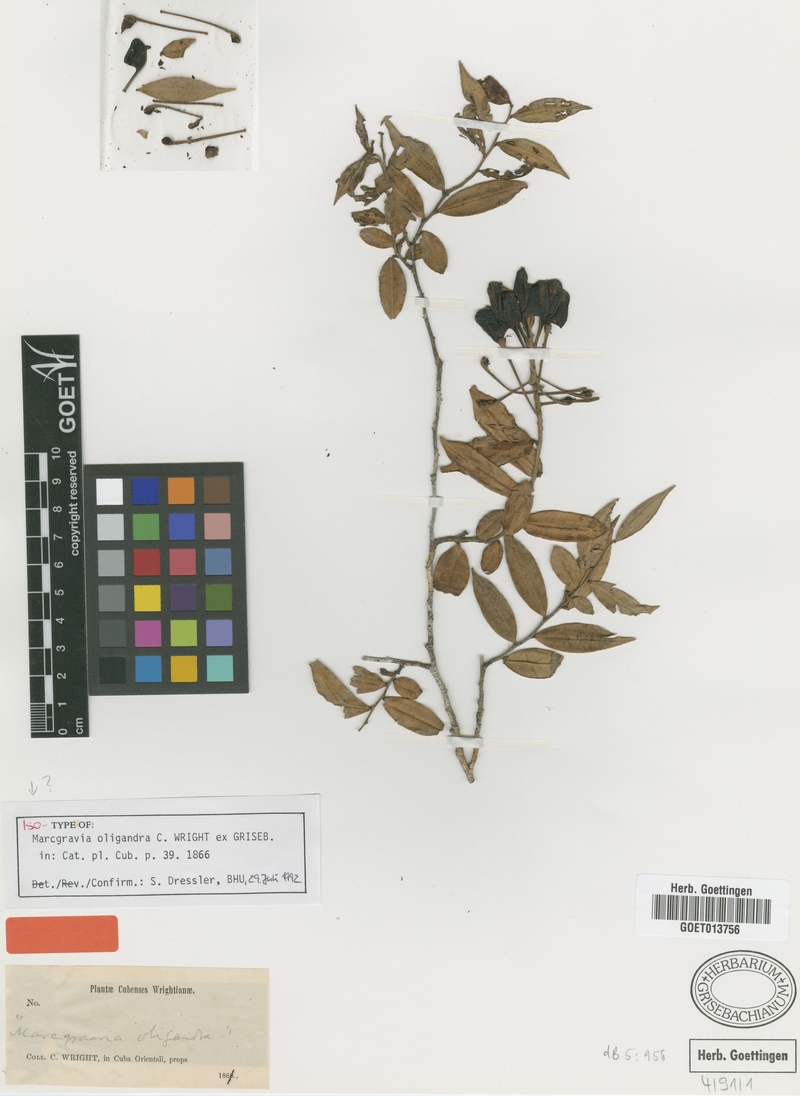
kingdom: Plantae
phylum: Tracheophyta
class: Magnoliopsida
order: Ericales
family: Marcgraviaceae
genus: Marcgravia
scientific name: Marcgravia oligandra
